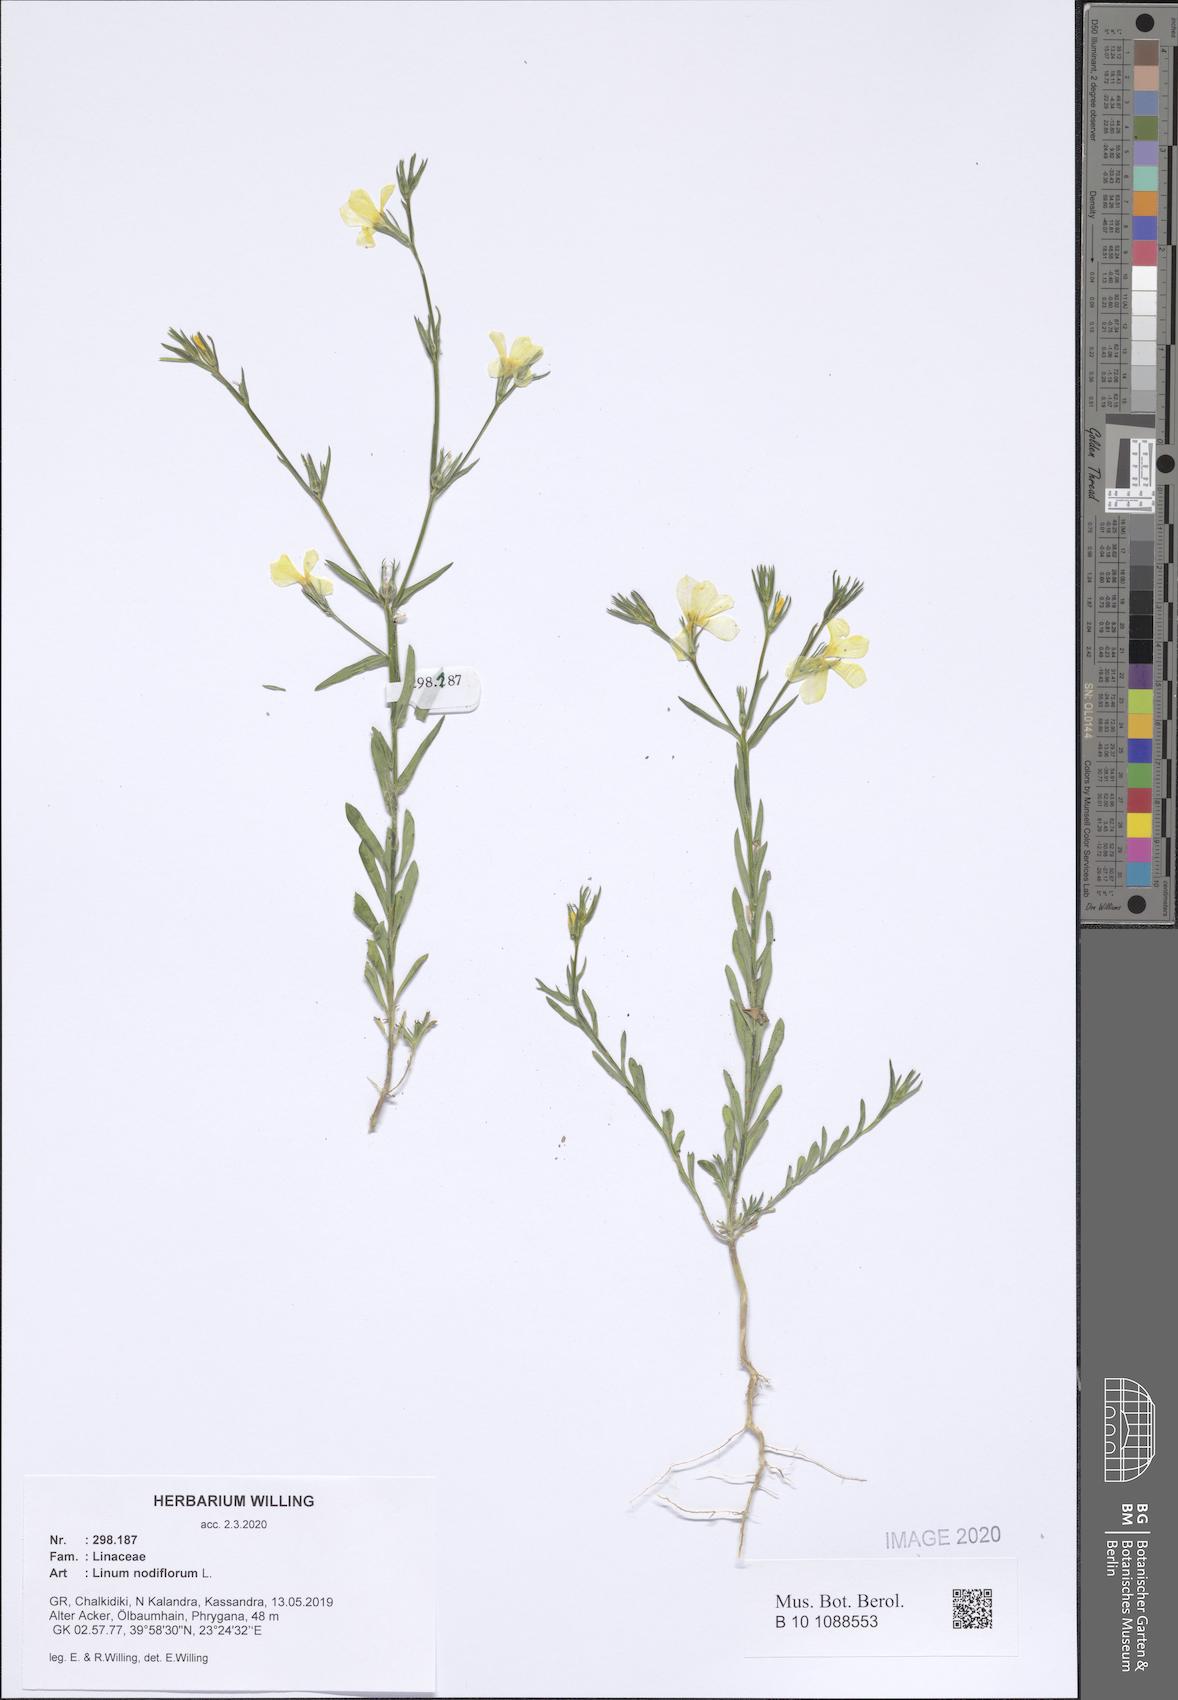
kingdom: Plantae
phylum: Tracheophyta
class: Magnoliopsida
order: Malpighiales
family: Linaceae
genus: Linum
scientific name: Linum nodiflorum
